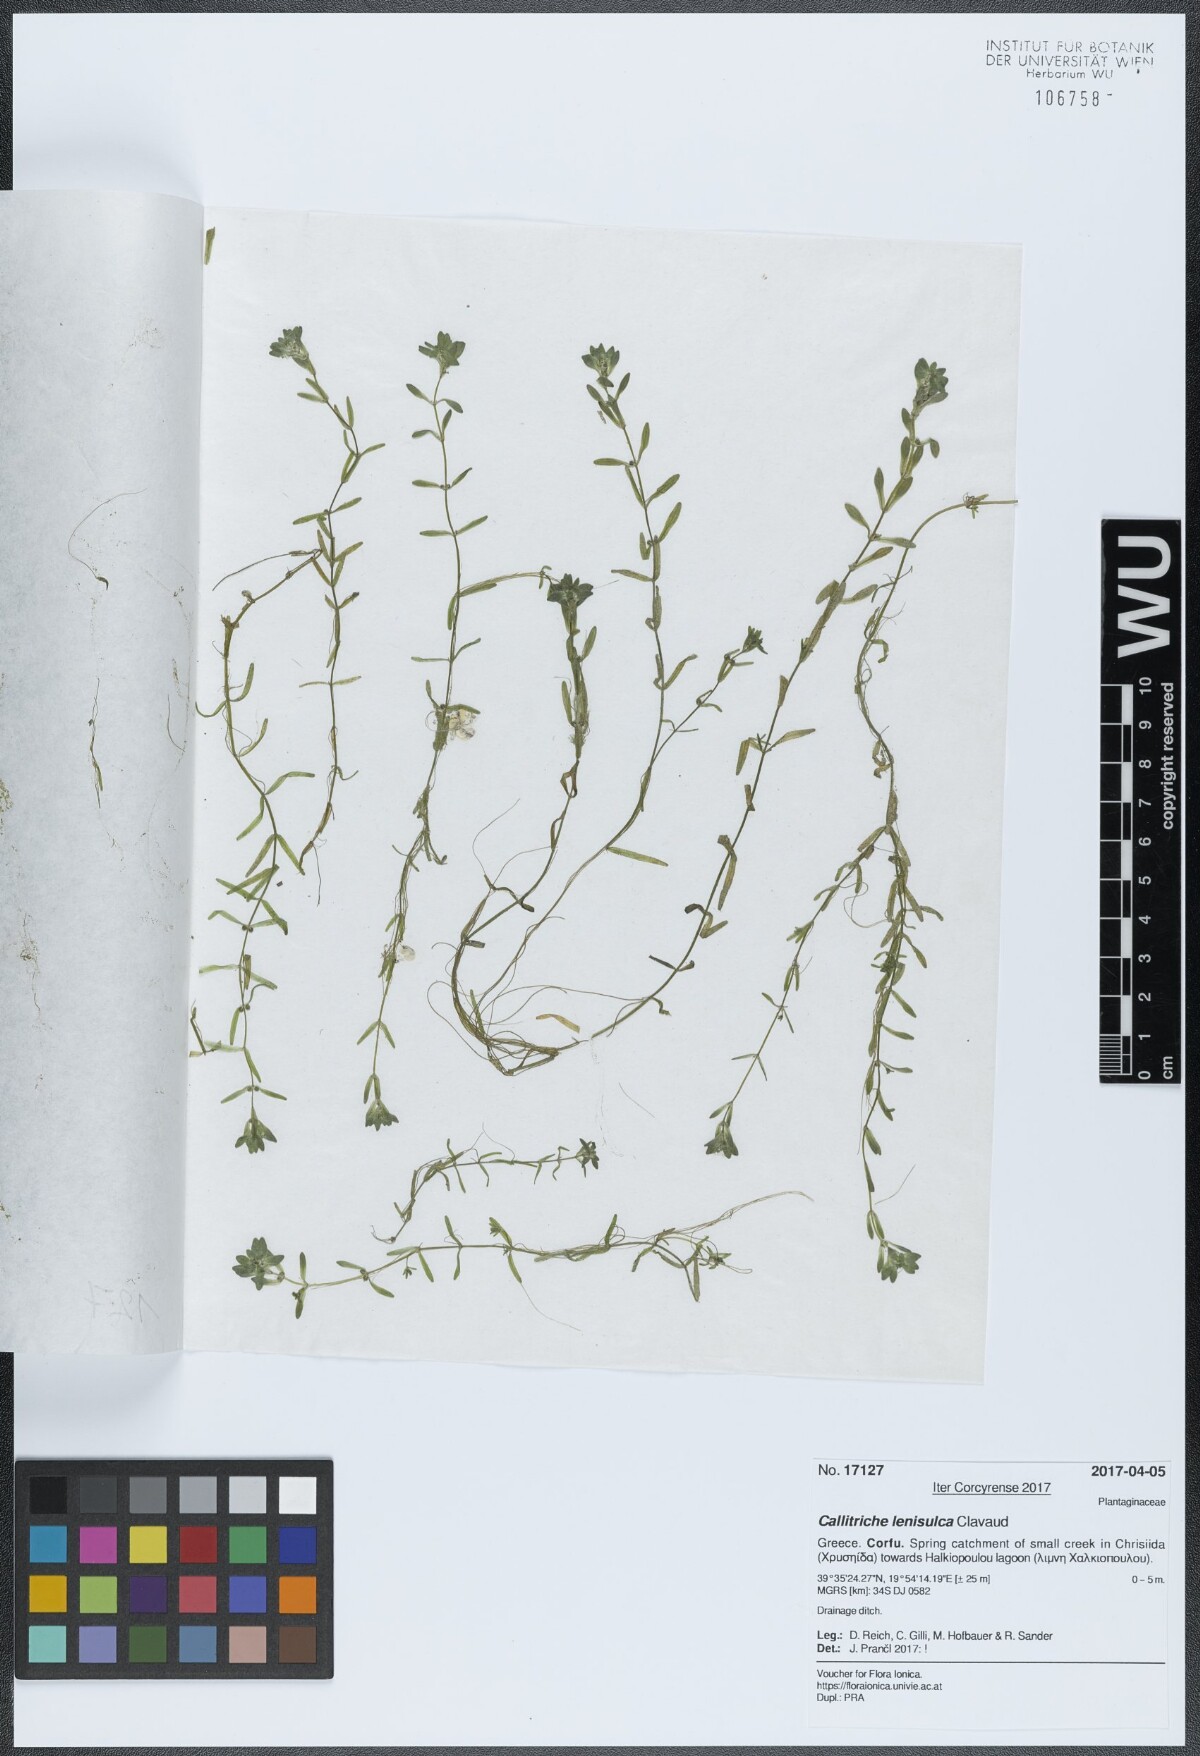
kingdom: Plantae
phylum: Tracheophyta
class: Magnoliopsida
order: Lamiales
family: Plantaginaceae
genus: Callitriche
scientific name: Callitriche lenisulca
